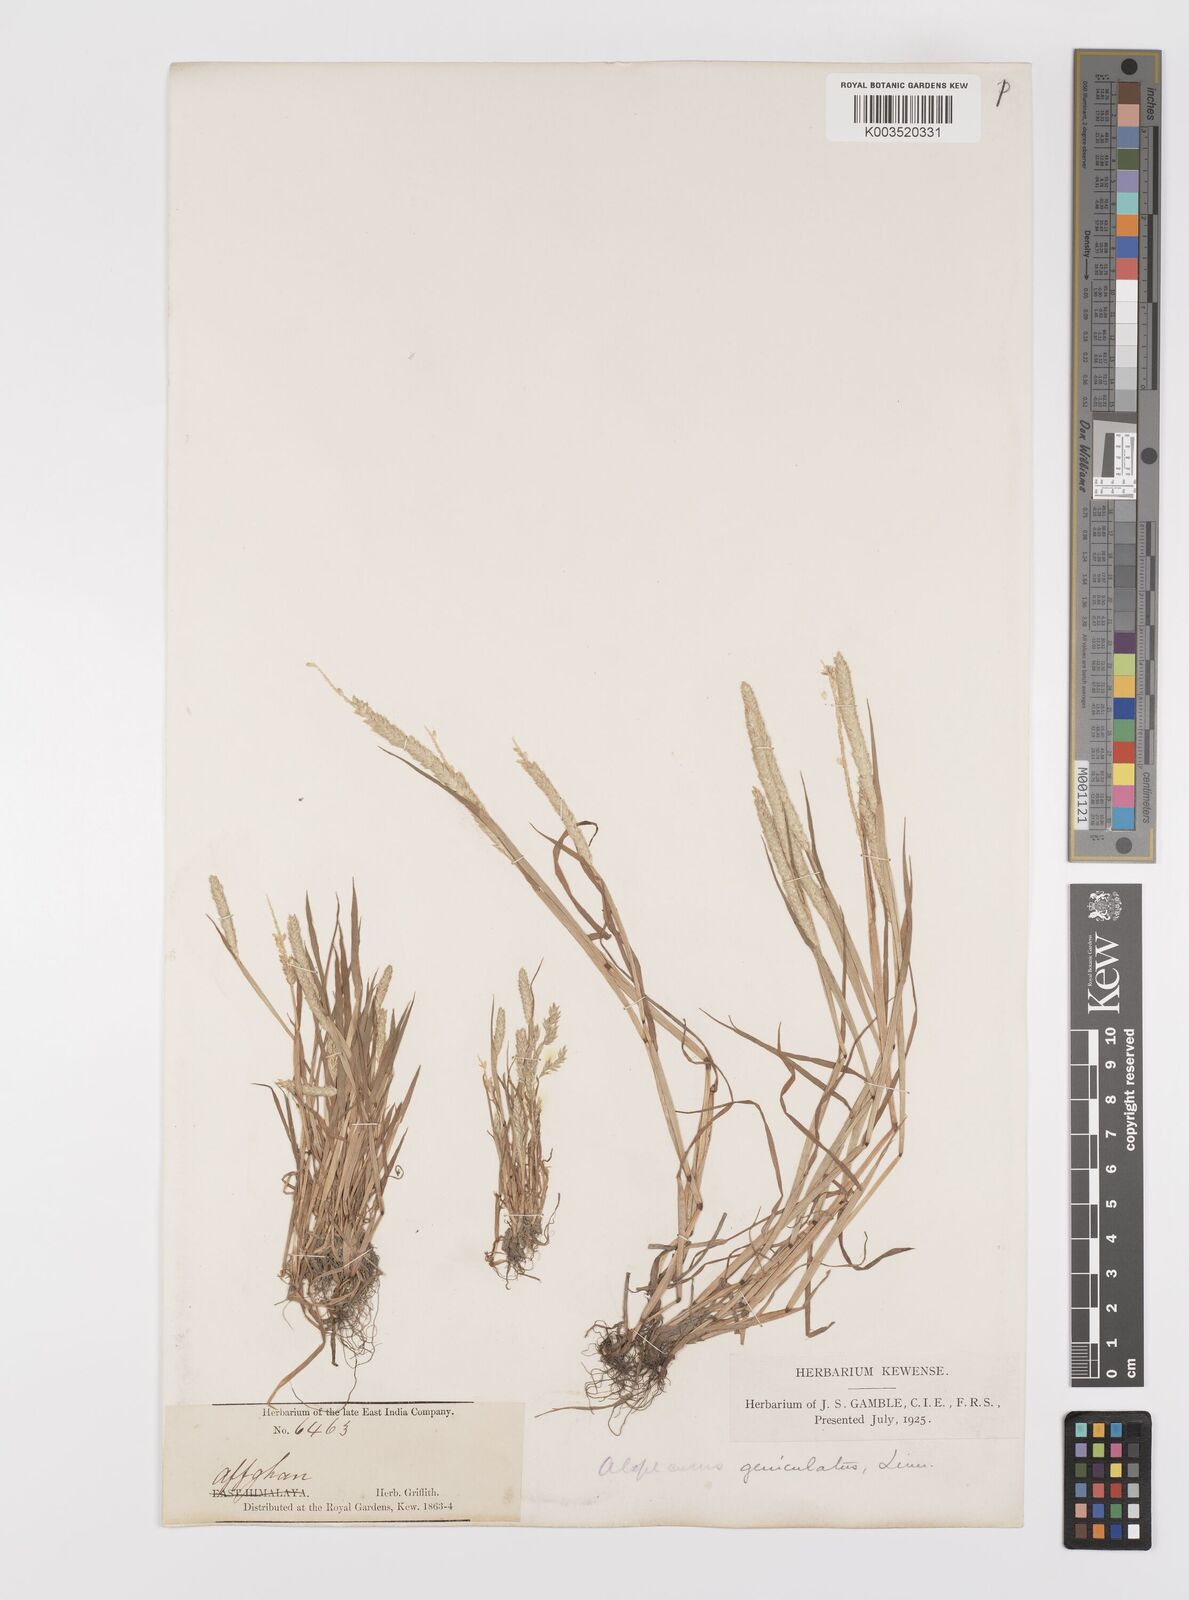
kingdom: Plantae
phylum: Tracheophyta
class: Liliopsida
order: Poales
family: Poaceae
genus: Alopecurus
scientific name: Alopecurus geniculatus
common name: Water foxtail
